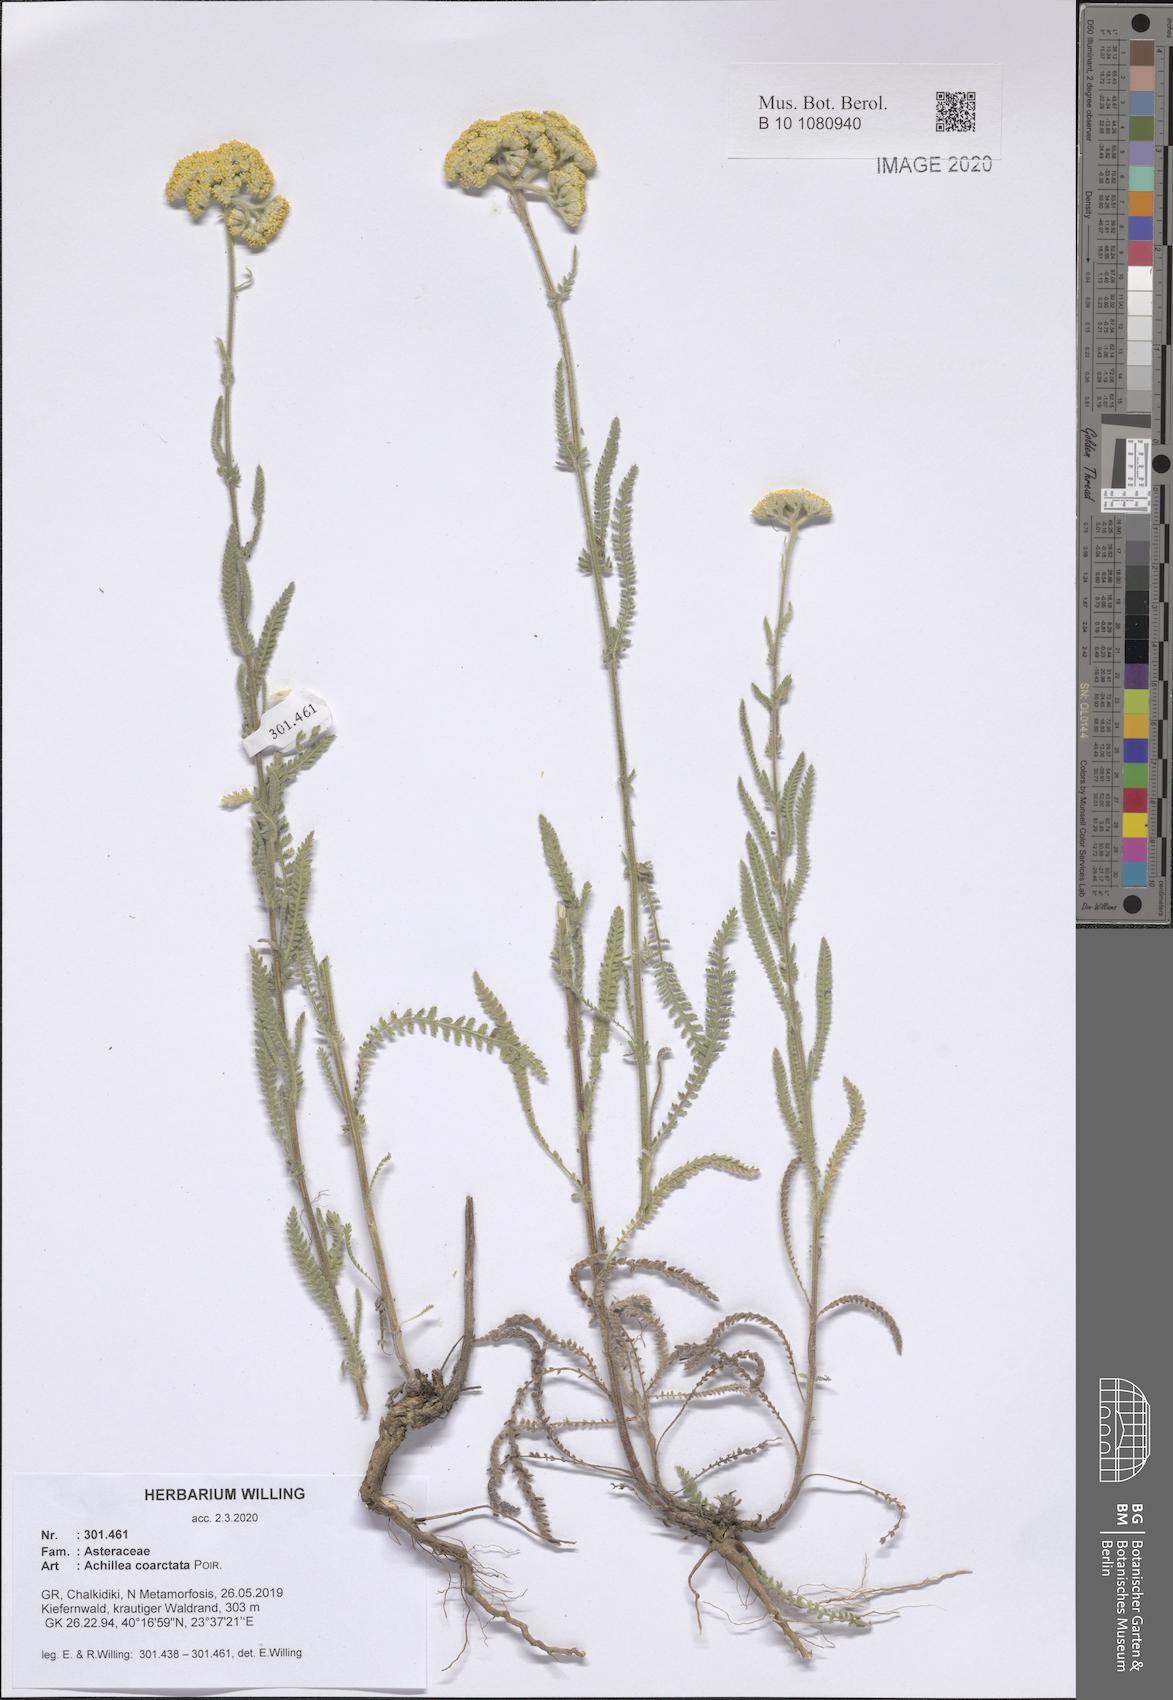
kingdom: Plantae
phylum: Tracheophyta
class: Magnoliopsida
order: Asterales
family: Asteraceae
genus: Achillea
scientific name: Achillea coarctata
